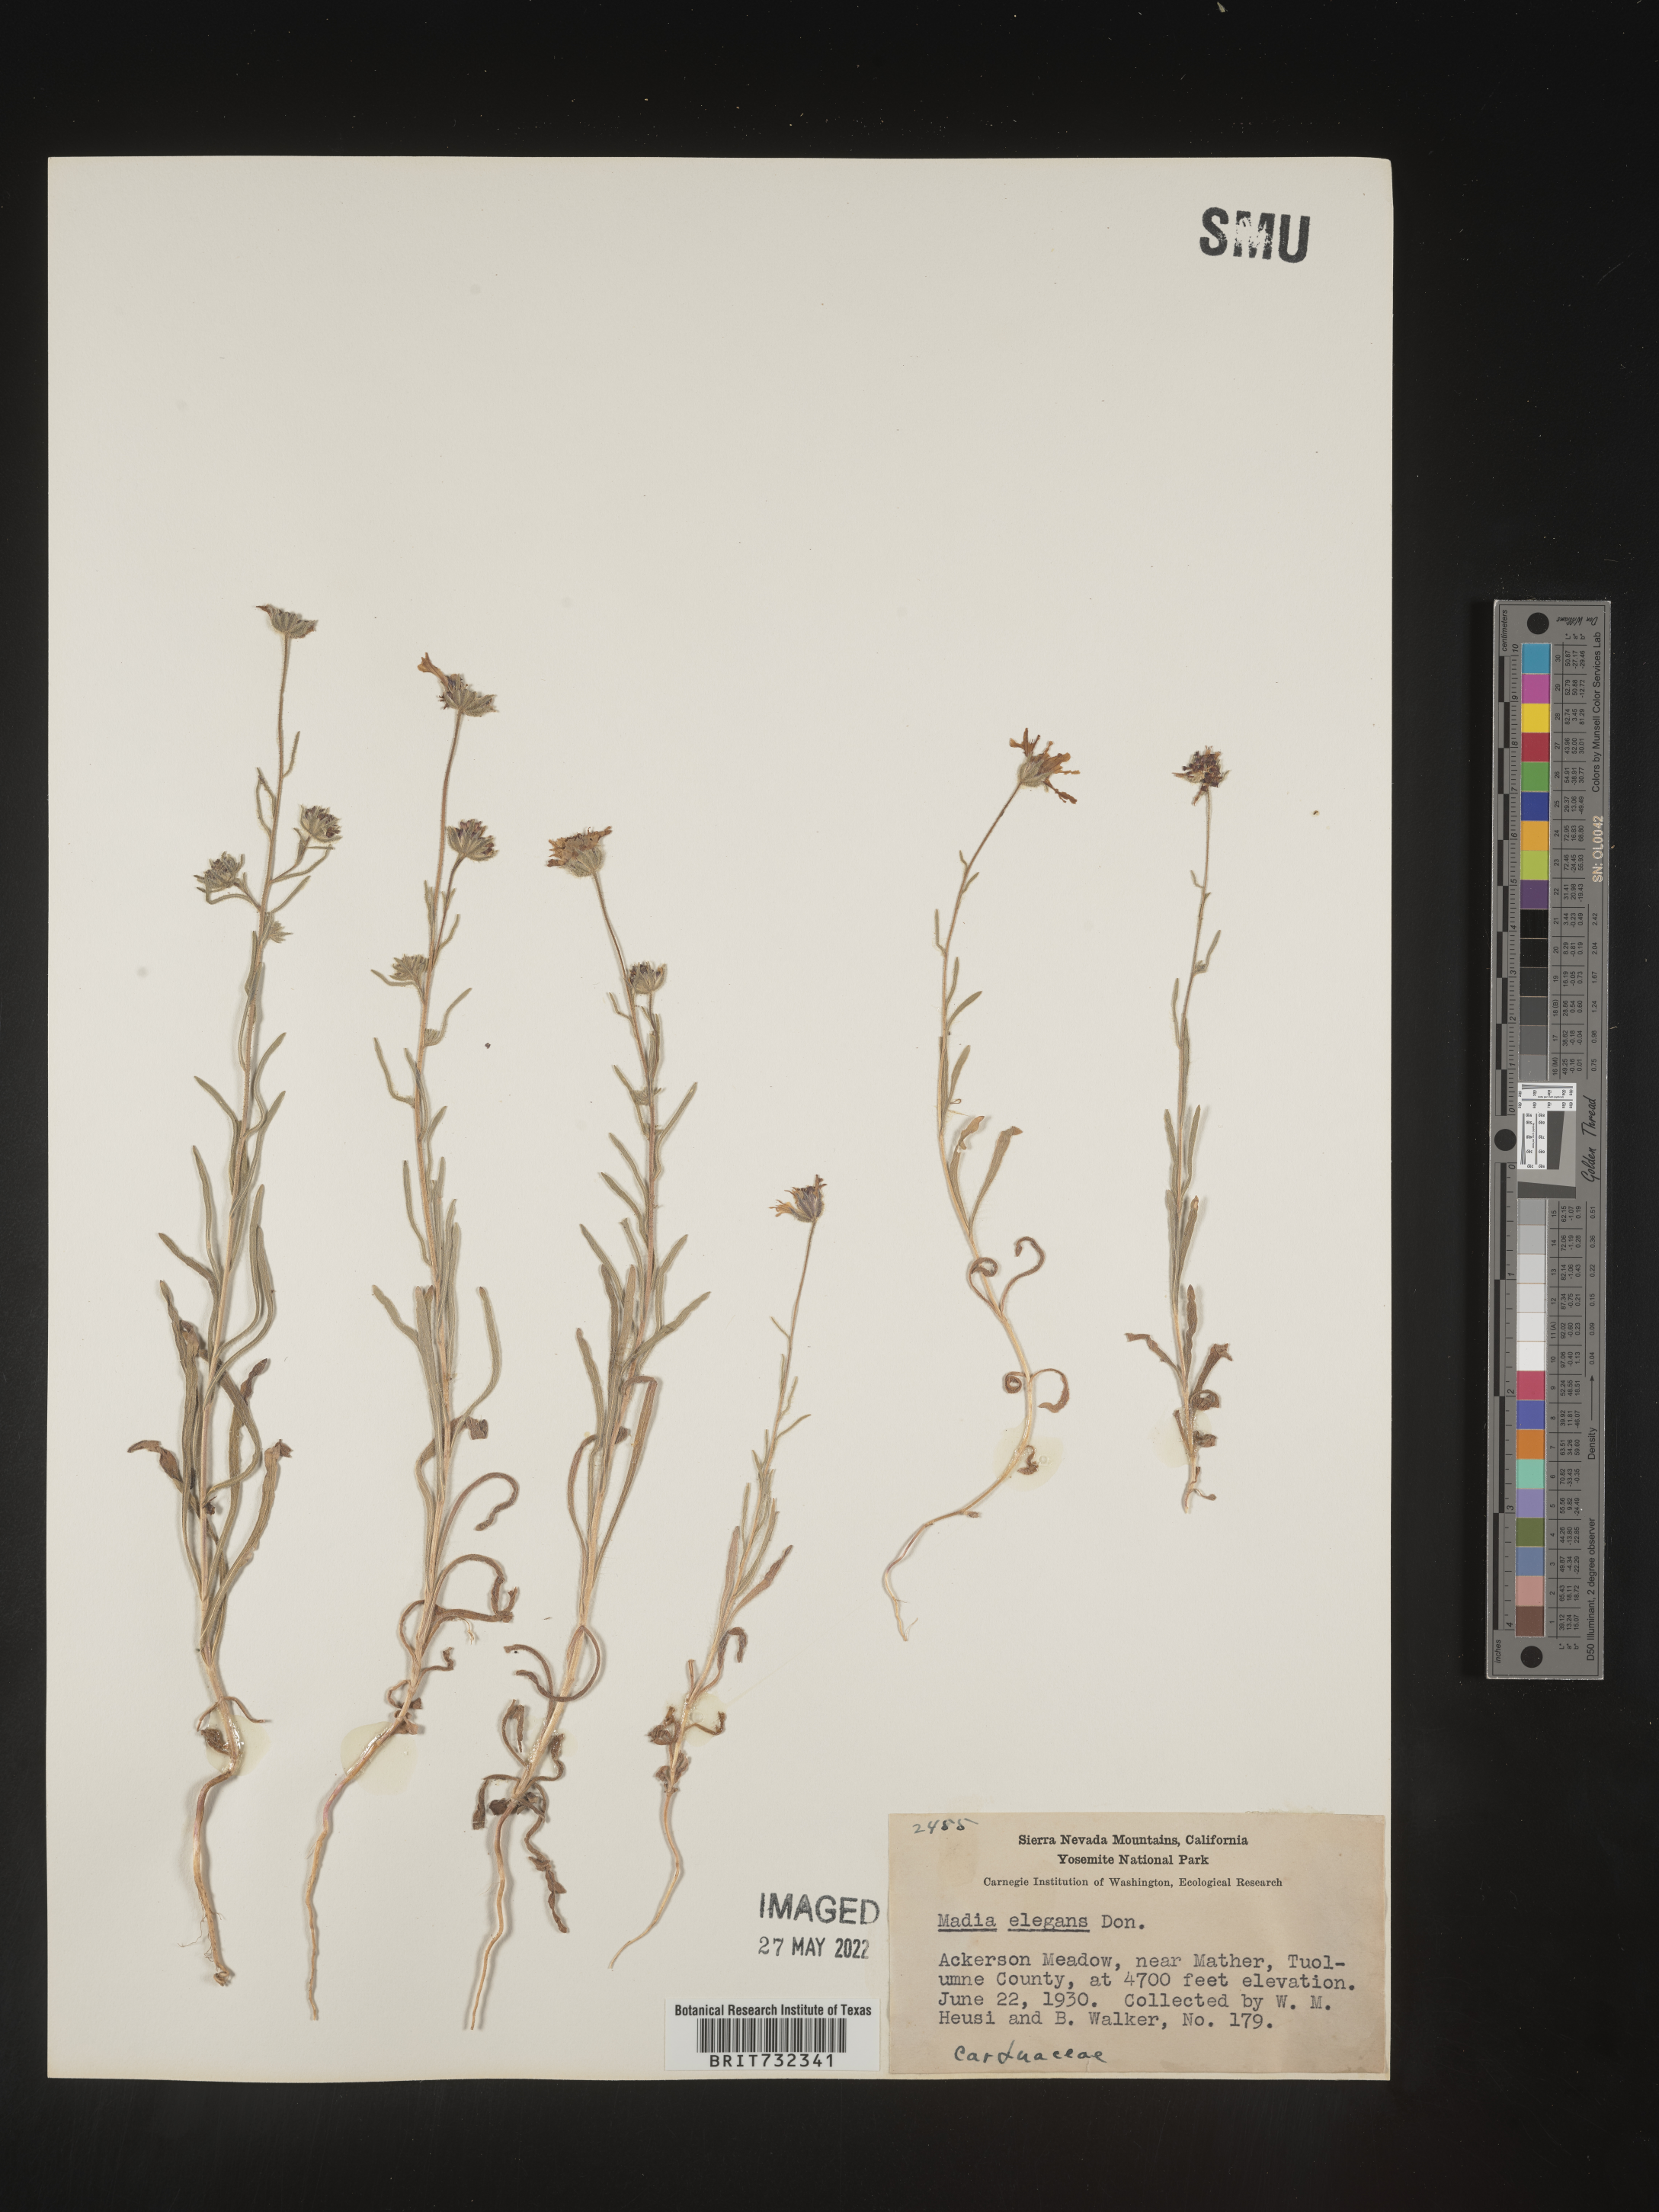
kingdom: Plantae
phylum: Tracheophyta
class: Magnoliopsida
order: Asterales
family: Asteraceae
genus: Madia
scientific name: Madia
